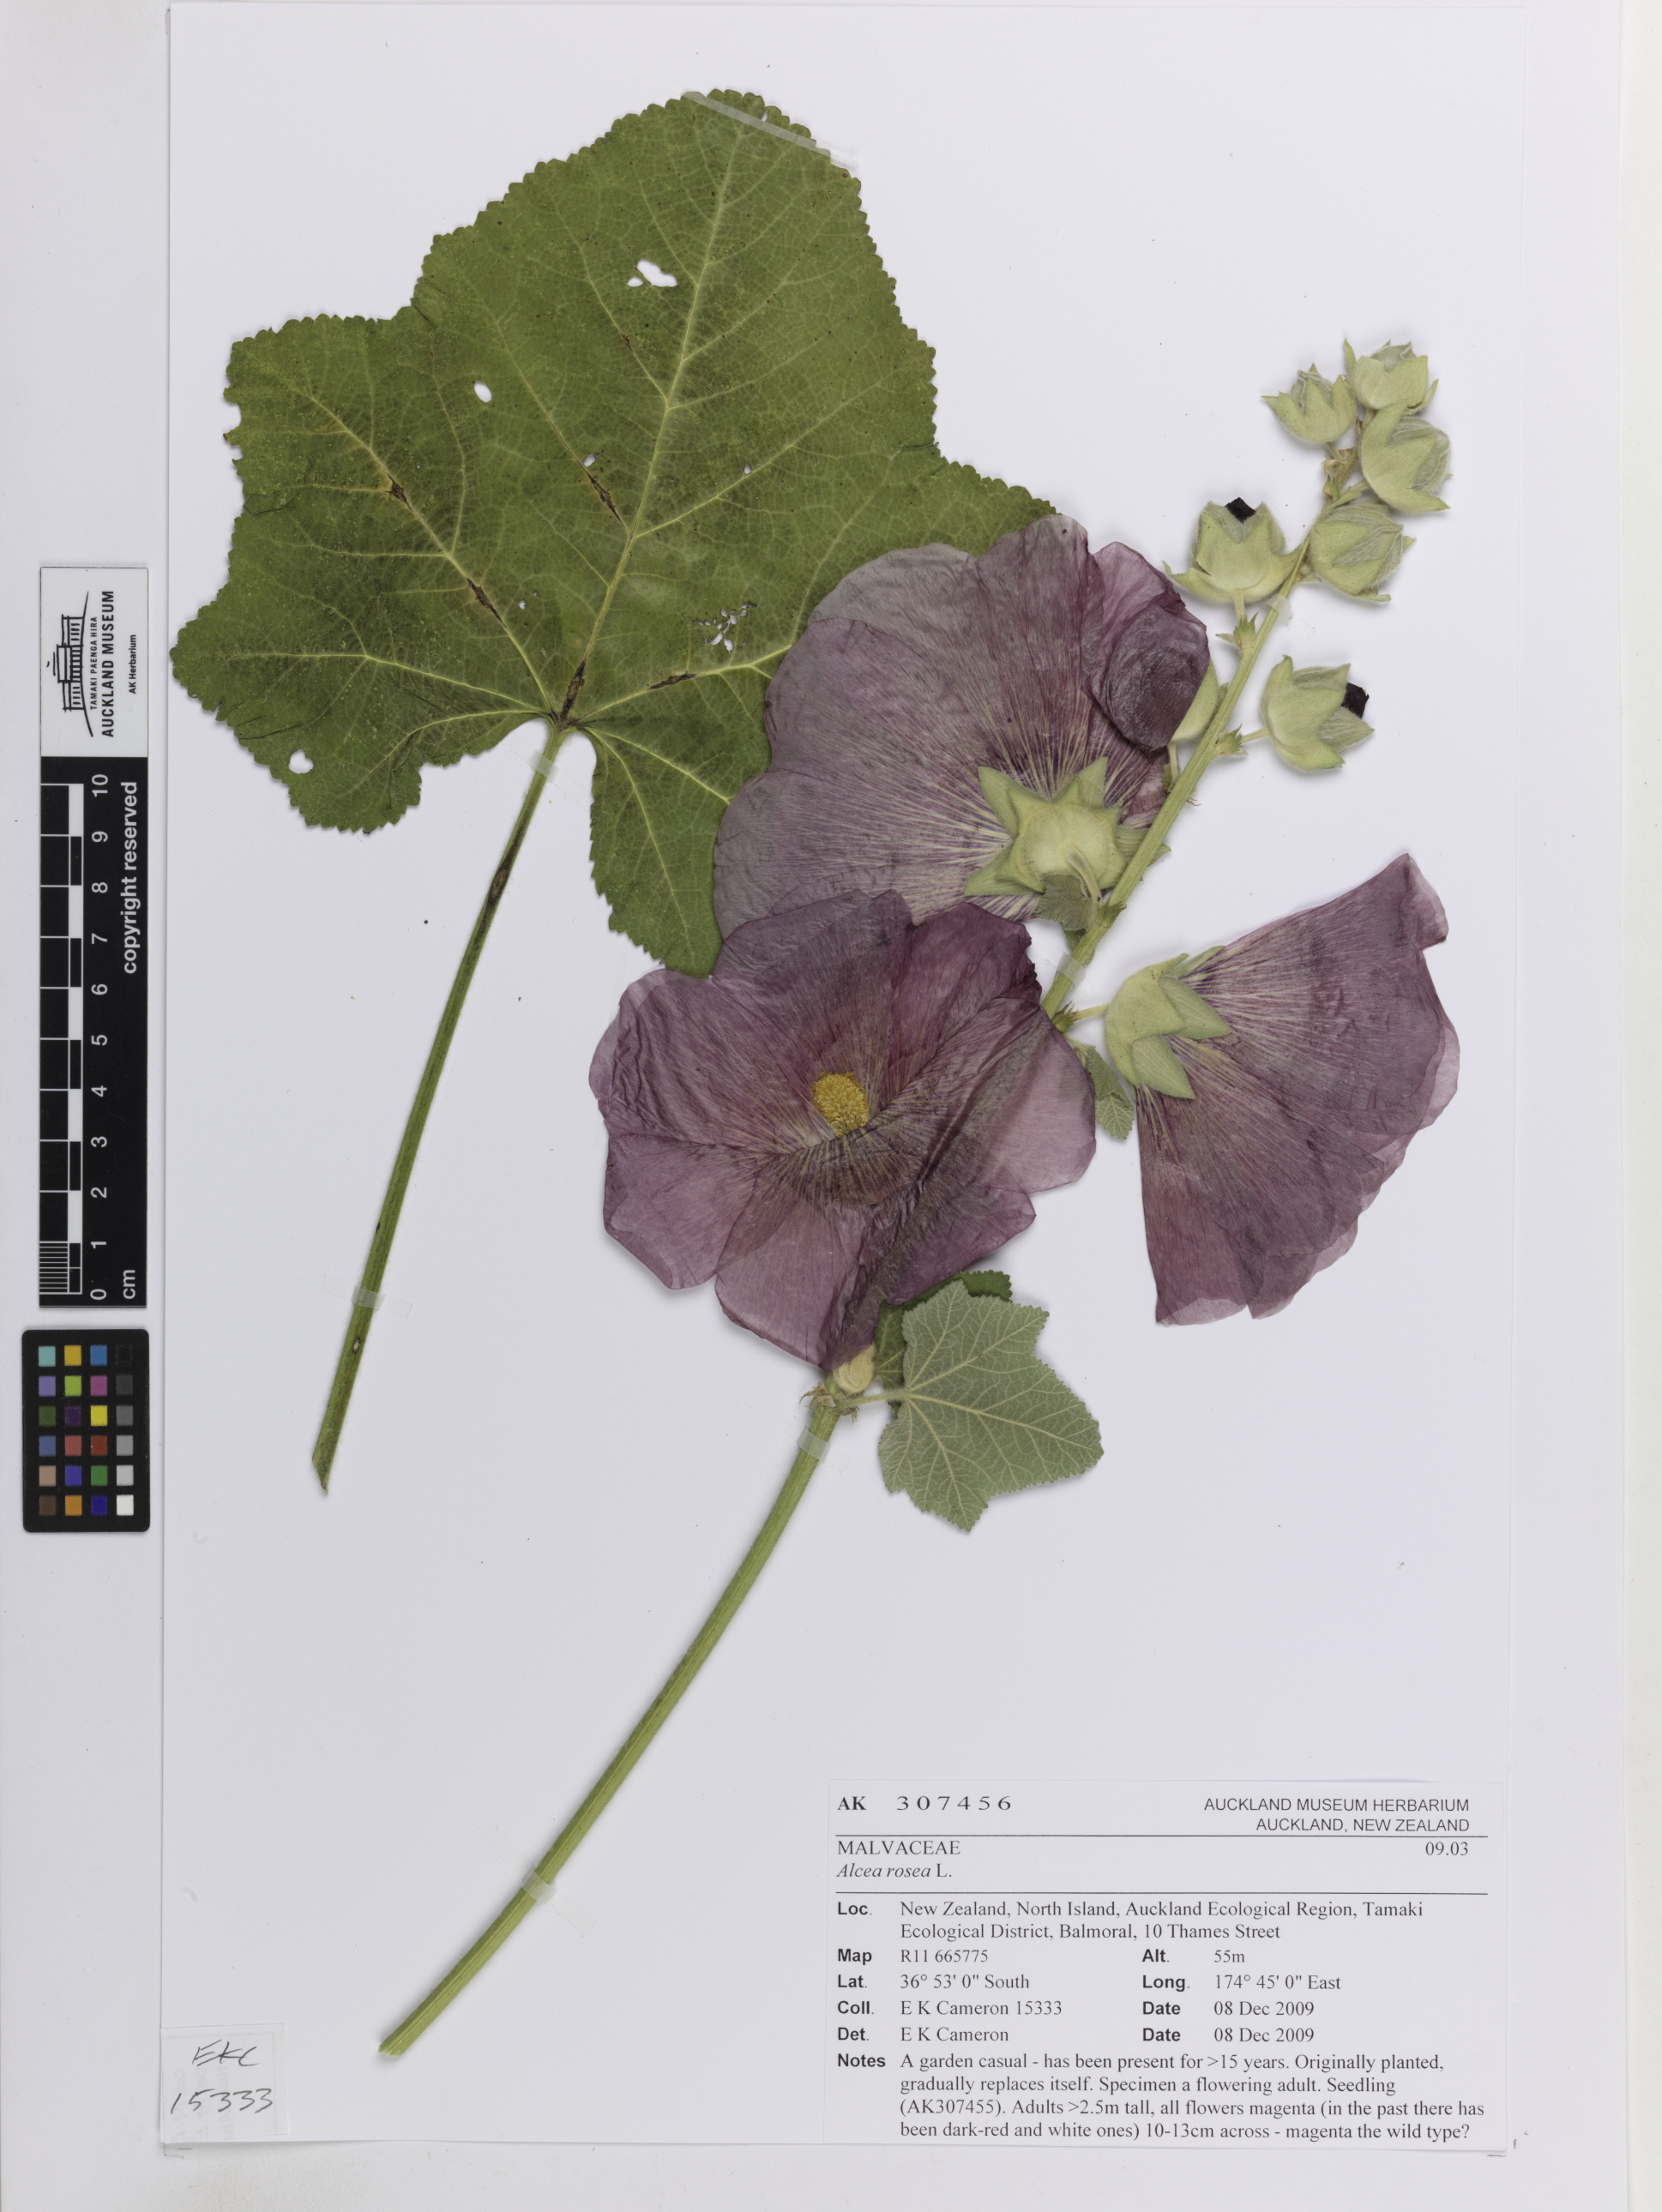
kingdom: Plantae
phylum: Tracheophyta
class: Magnoliopsida
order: Malvales
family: Malvaceae
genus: Alcea
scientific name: Alcea rosea
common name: Hollyhock
